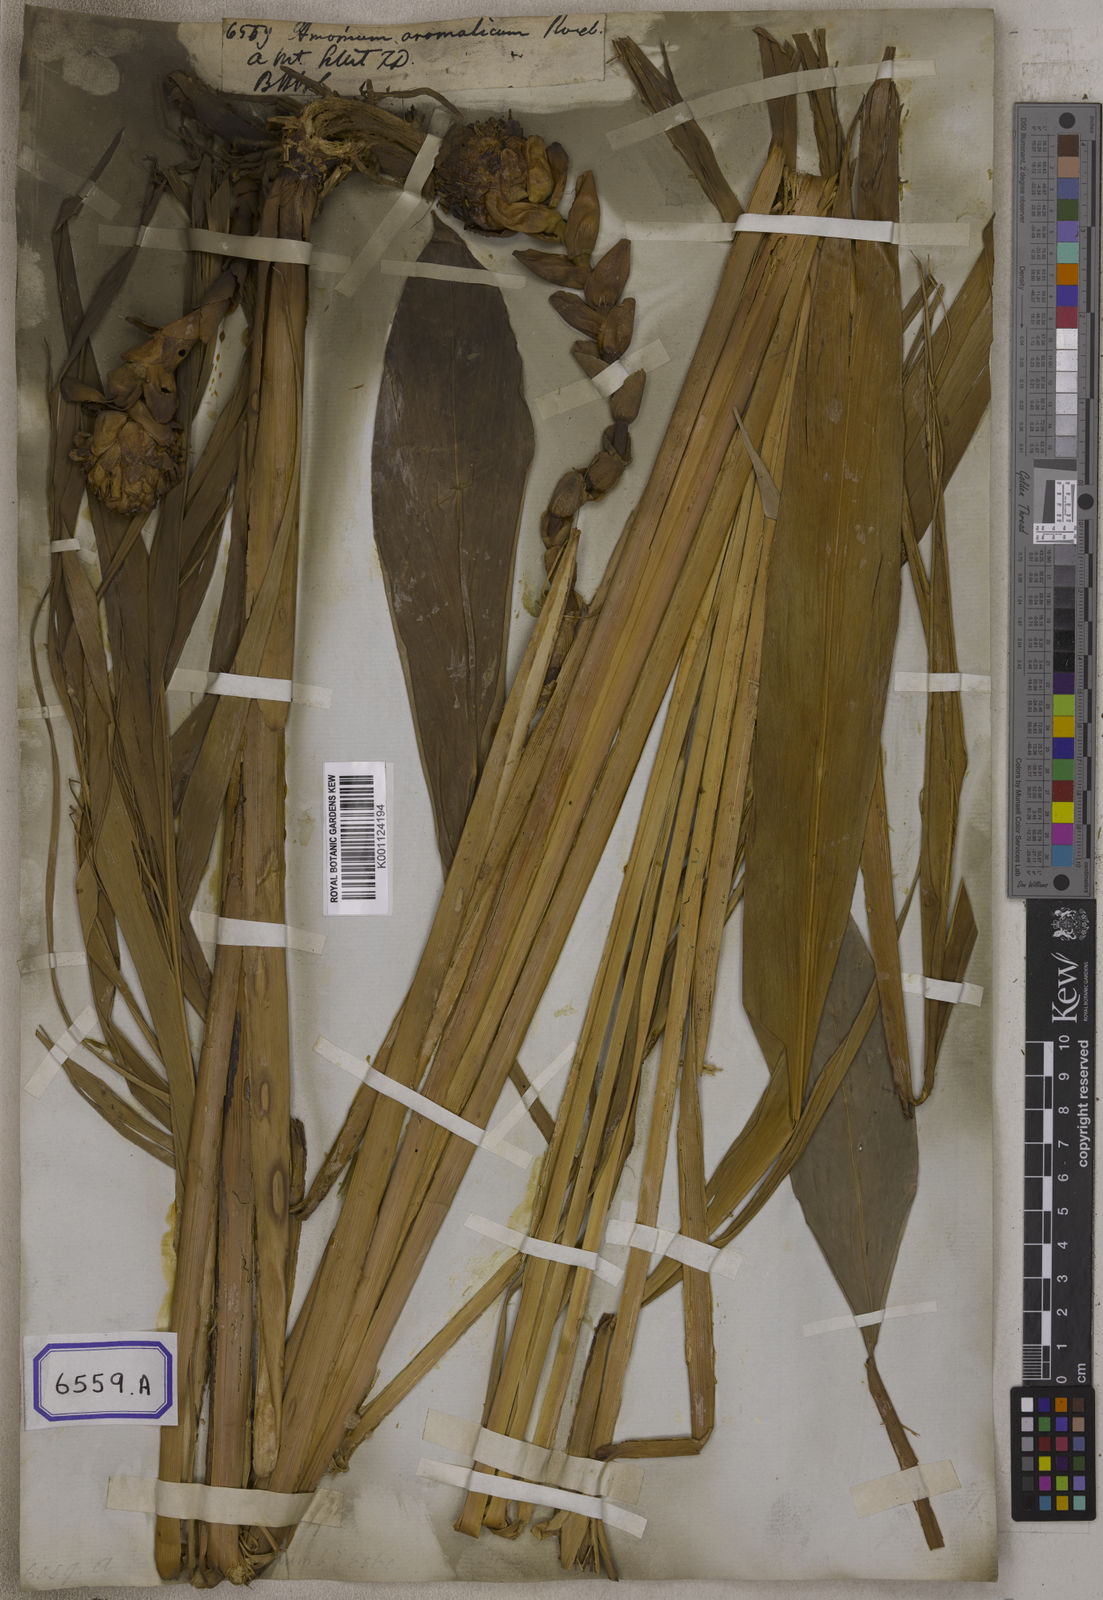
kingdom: Plantae
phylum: Tracheophyta
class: Liliopsida
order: Zingiberales
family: Zingiberaceae
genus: Wurfbainia
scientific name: Wurfbainia aromatica
